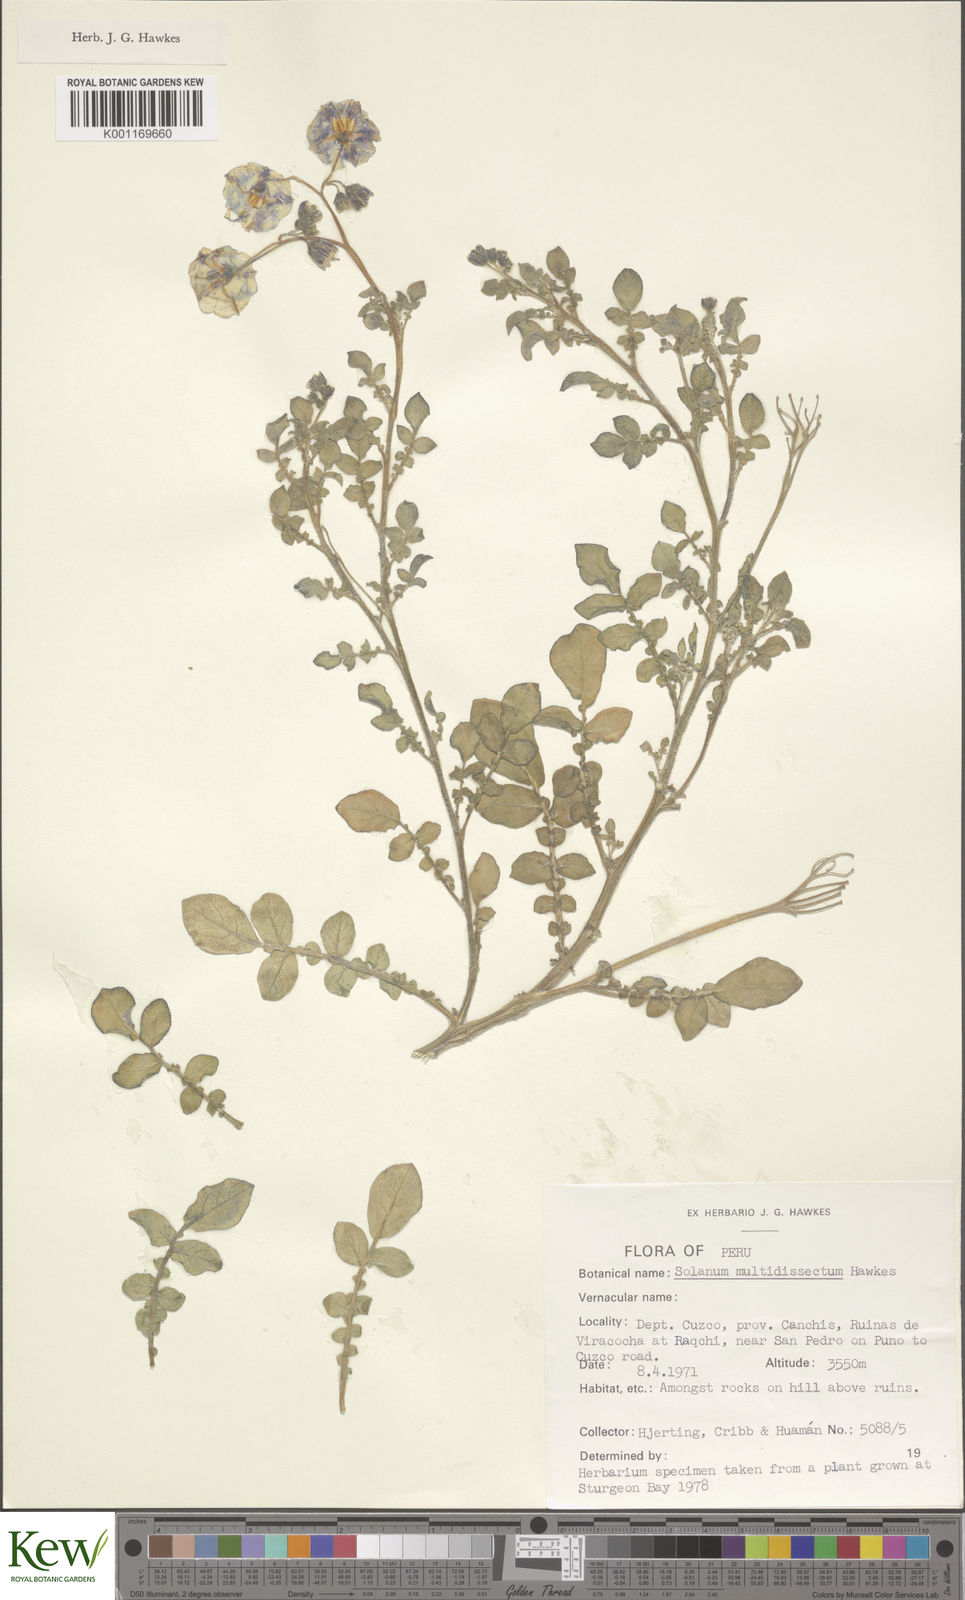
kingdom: Plantae
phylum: Tracheophyta
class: Magnoliopsida
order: Solanales
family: Solanaceae
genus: Solanum
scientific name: Solanum candolleanum
